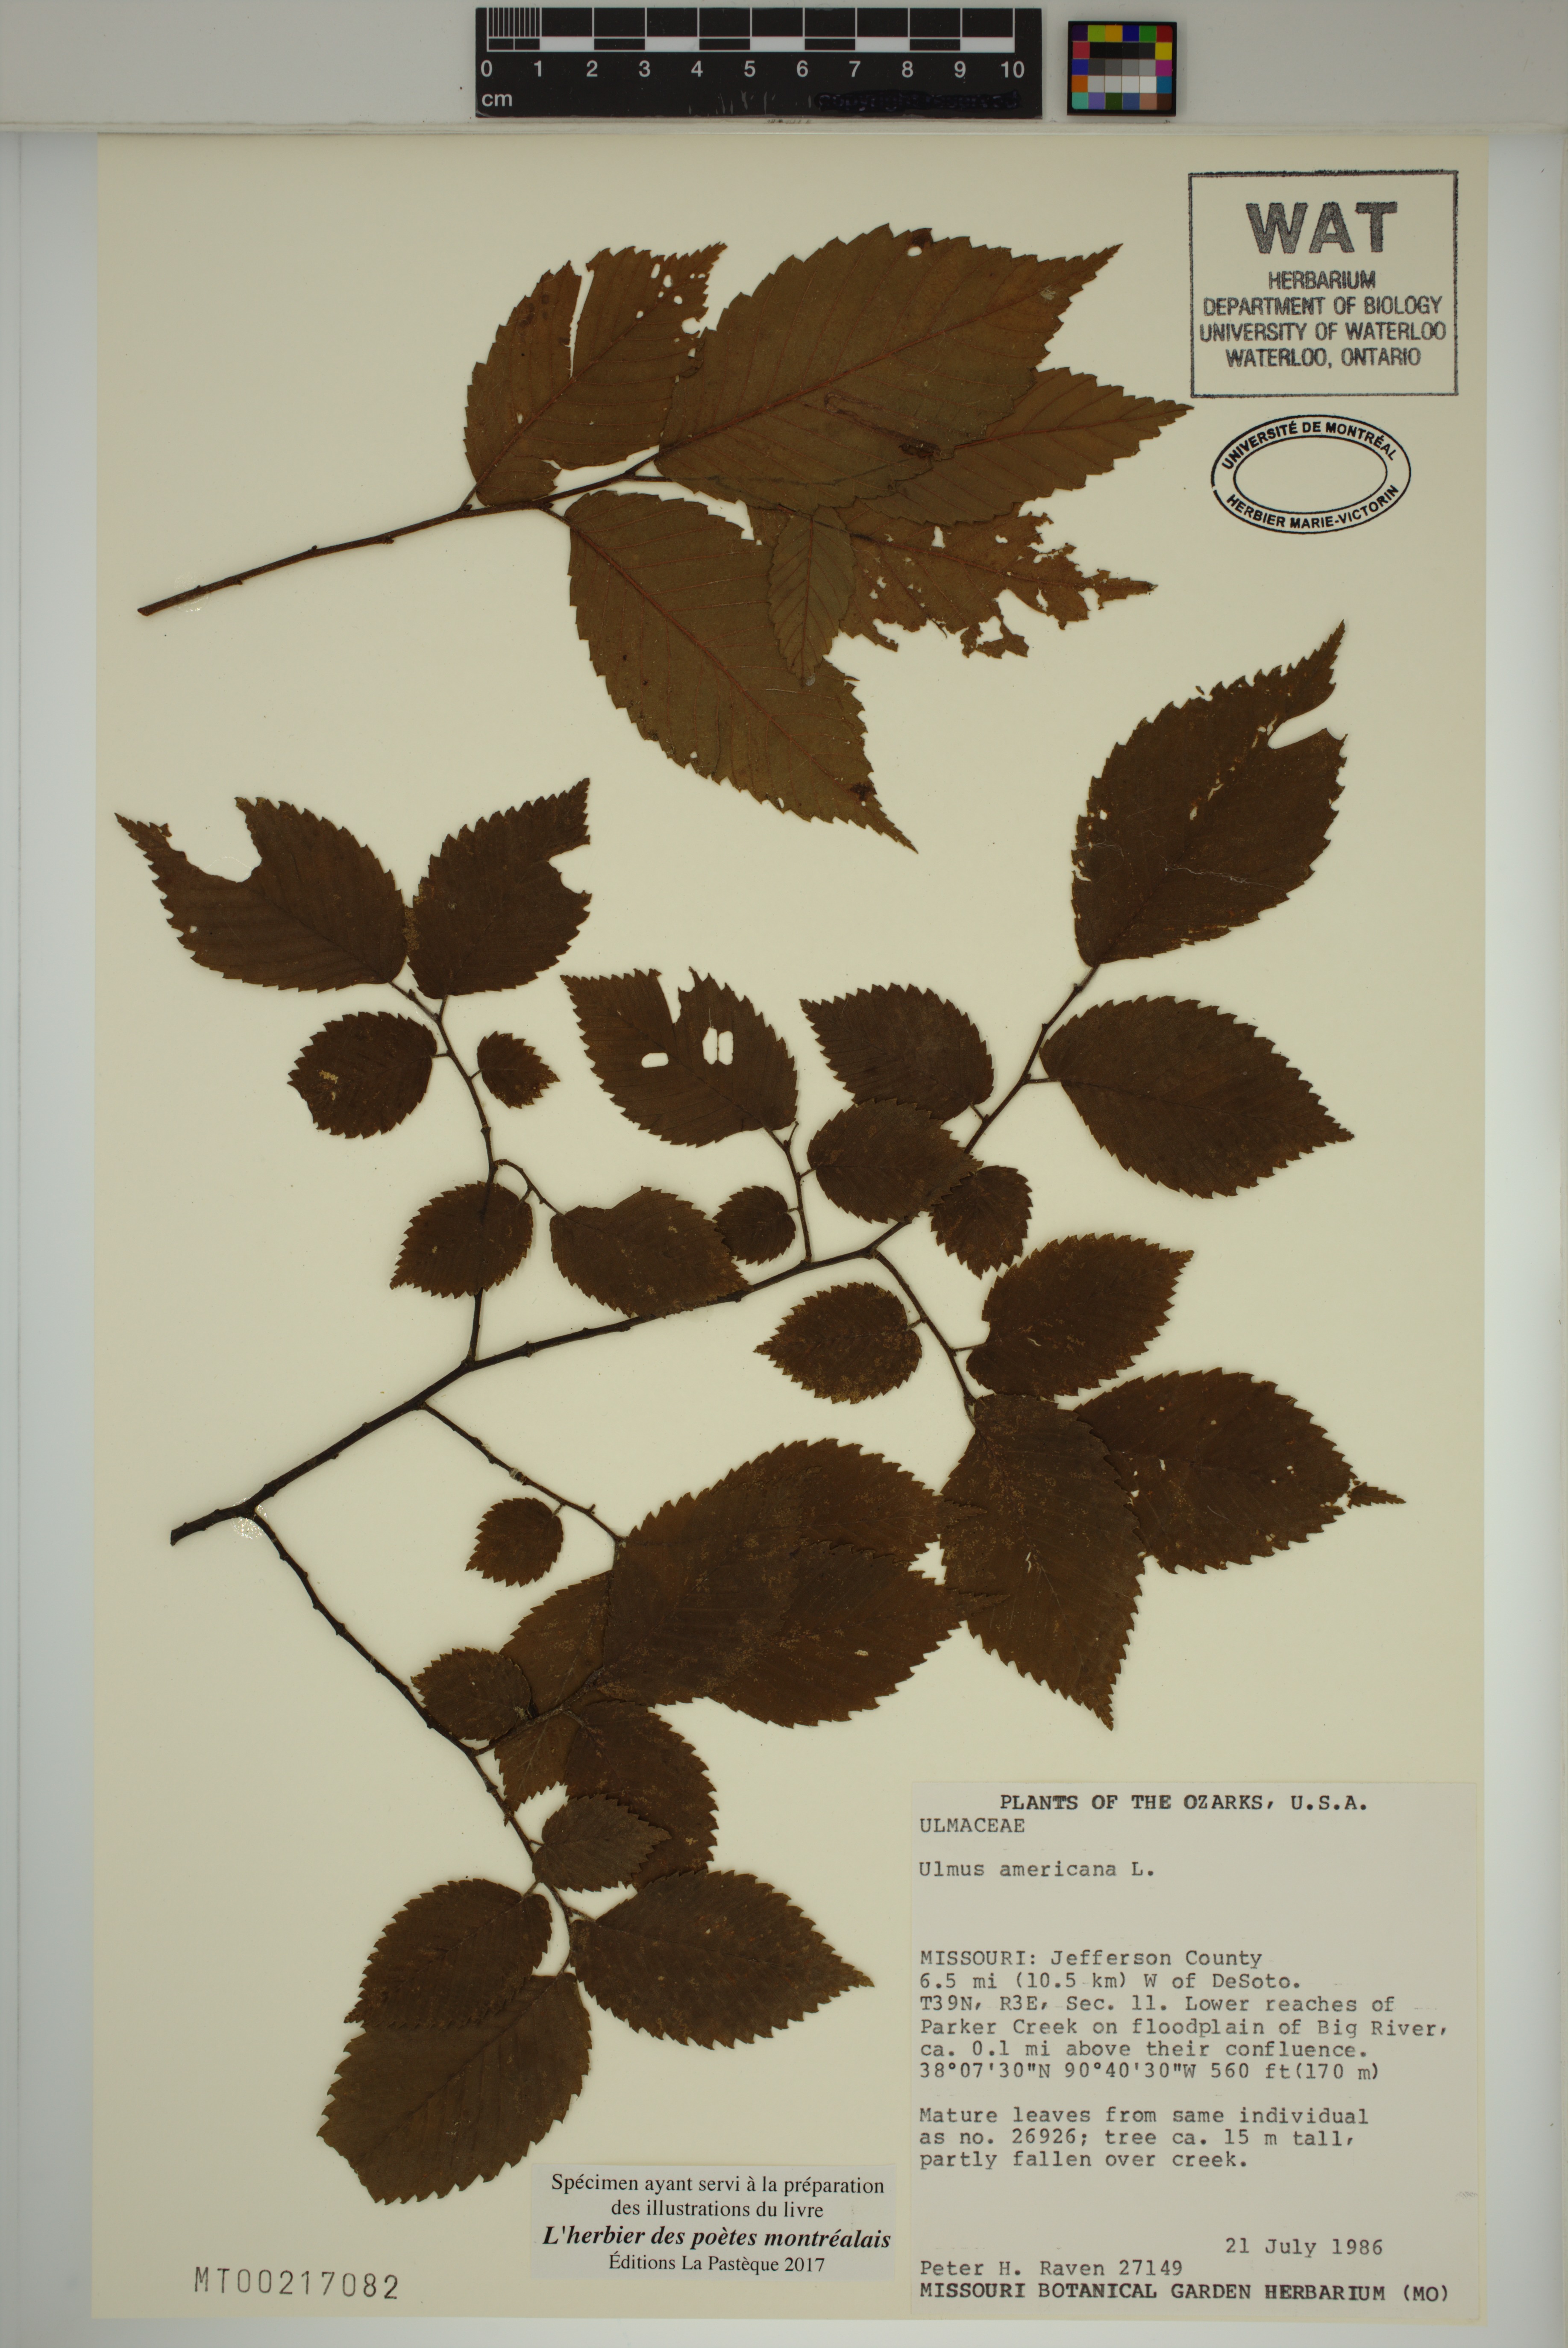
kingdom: Plantae
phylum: Tracheophyta
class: Magnoliopsida
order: Rosales
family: Ulmaceae
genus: Ulmus
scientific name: Ulmus americana
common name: American elm
